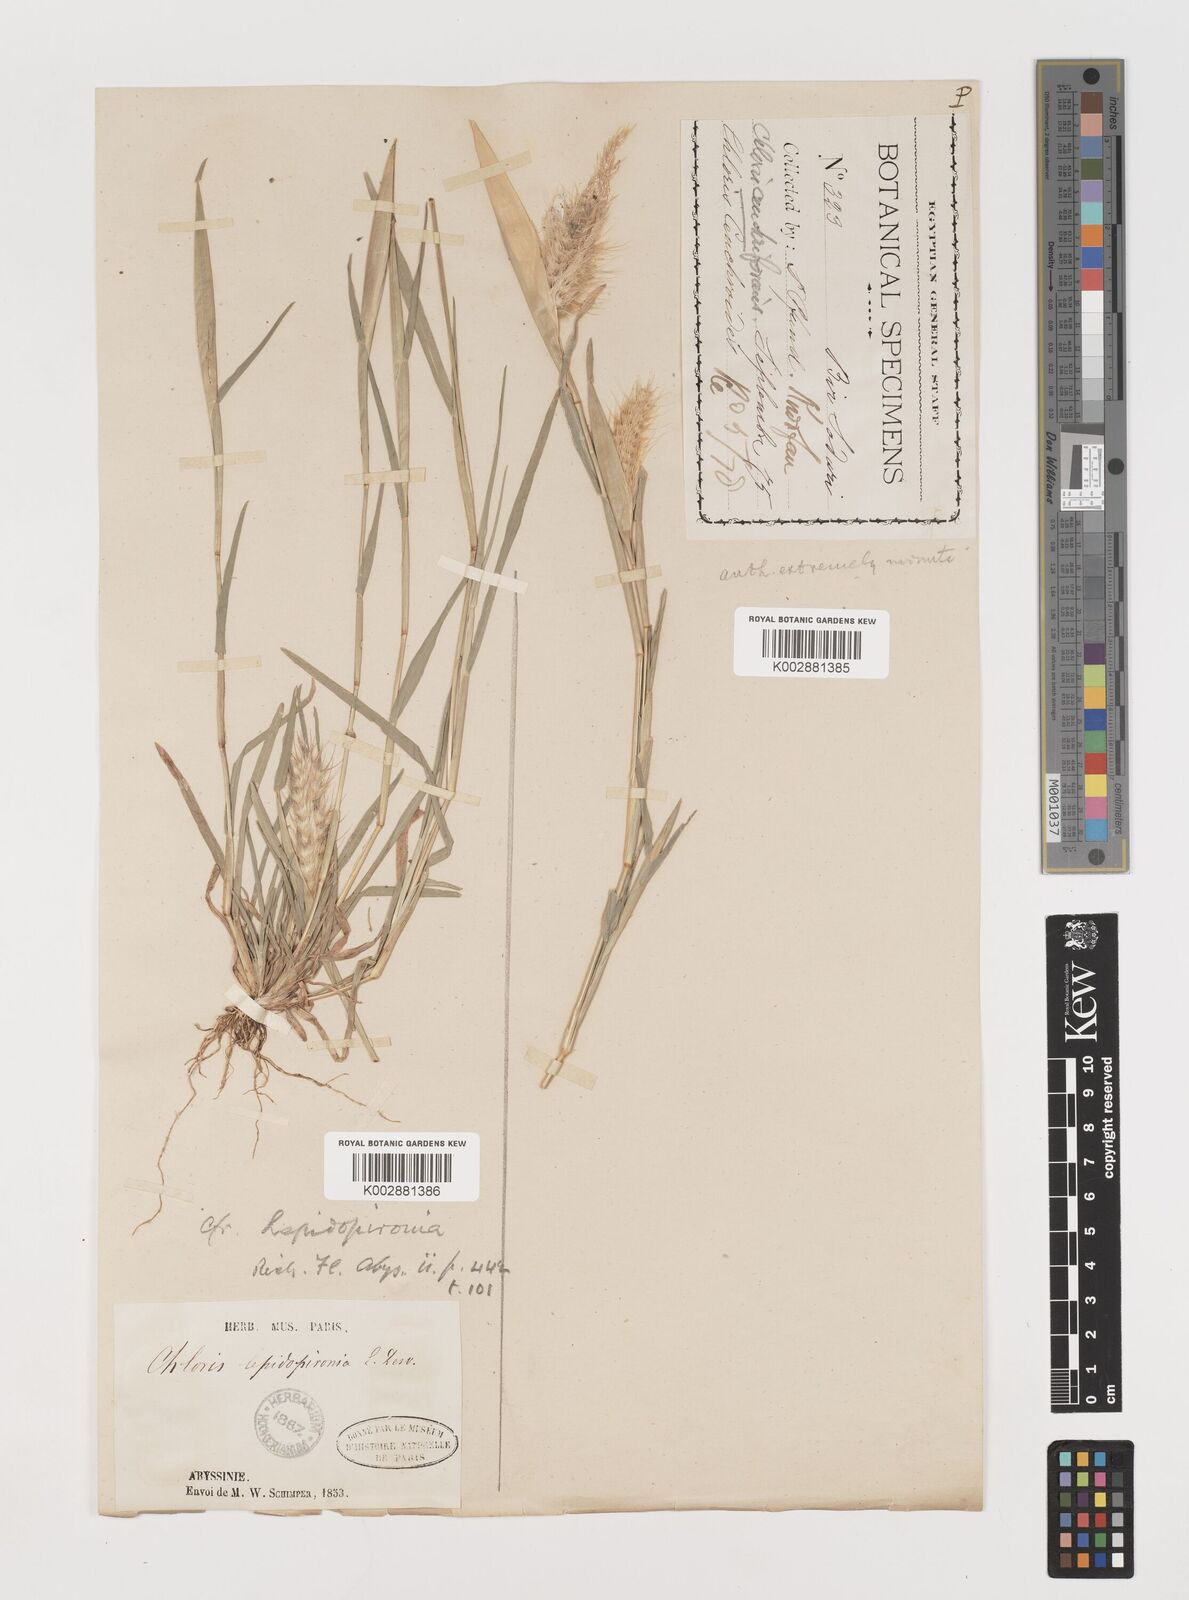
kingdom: Plantae
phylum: Tracheophyta
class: Liliopsida
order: Poales
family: Poaceae
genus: Tetrapogon
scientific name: Tetrapogon cenchriformis
